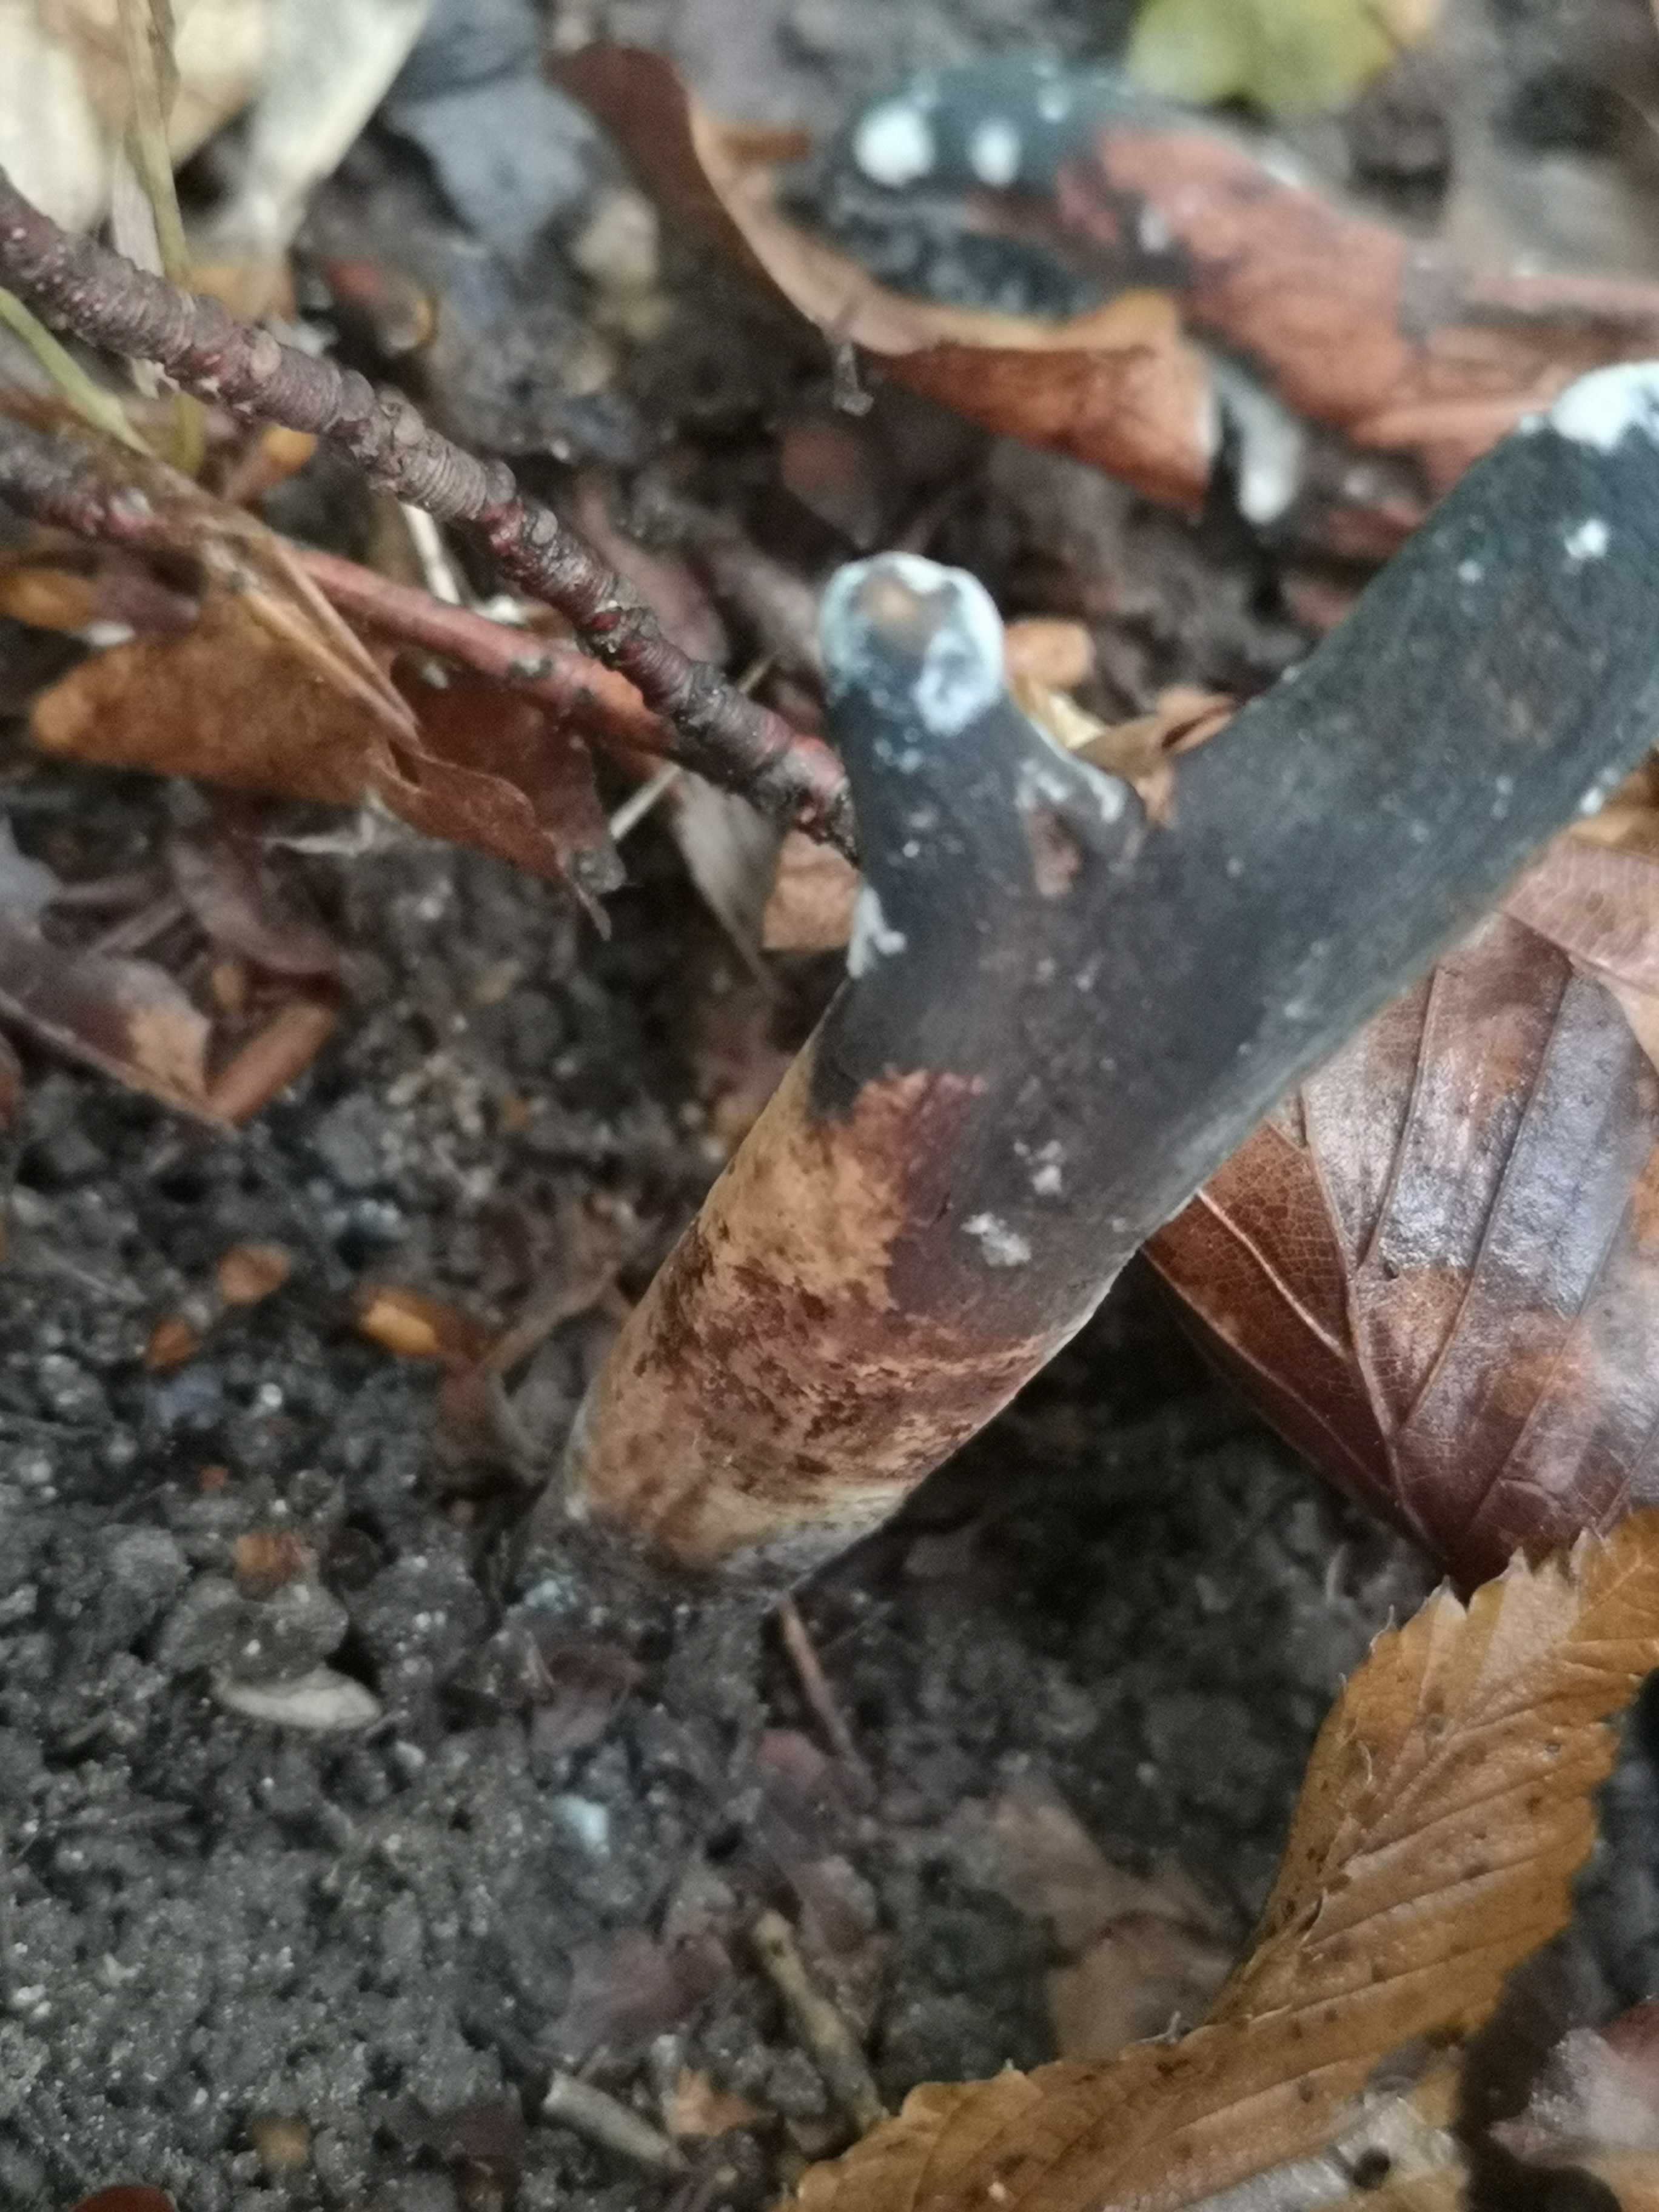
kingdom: Fungi
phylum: Basidiomycota
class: Agaricomycetes
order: Gomphales
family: Clavariadelphaceae
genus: Clavariadelphus
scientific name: Clavariadelphus pistillaris
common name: herkules-kæmpekølle
